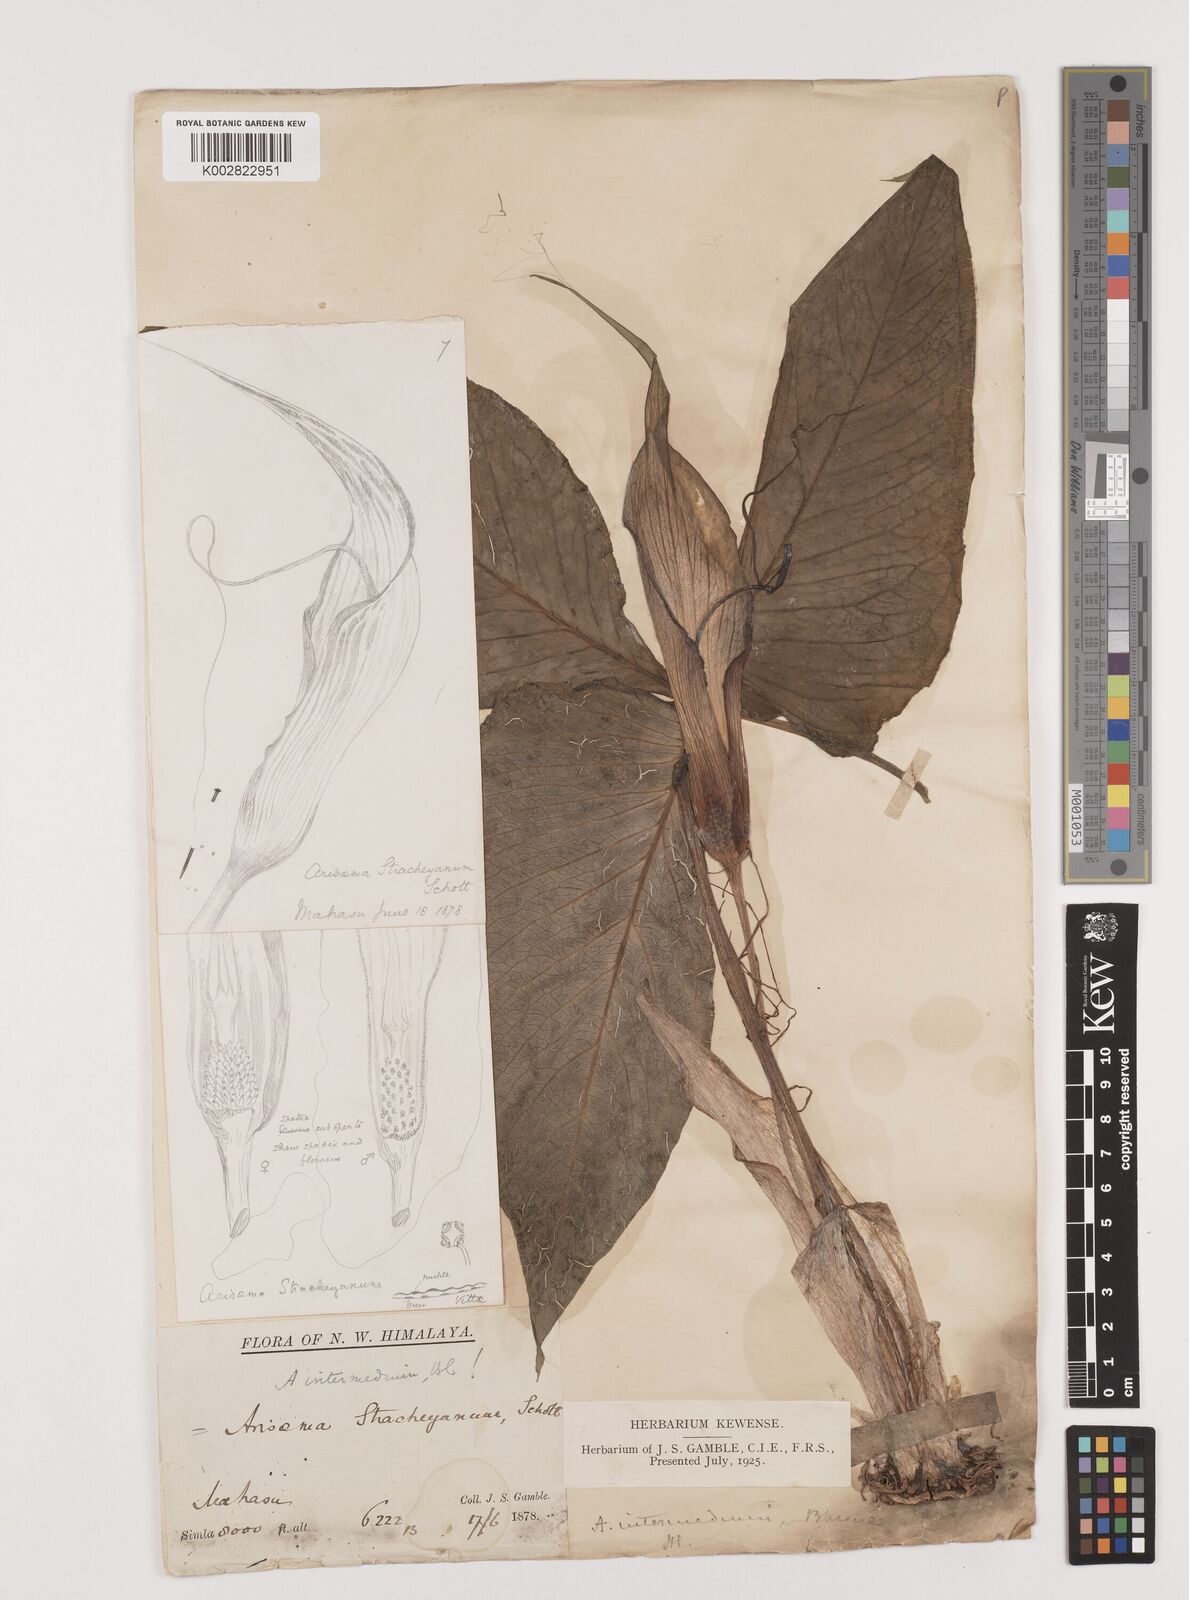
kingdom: Plantae
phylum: Tracheophyta
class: Liliopsida
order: Alismatales
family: Araceae
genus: Arisaema
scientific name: Arisaema intermedium
